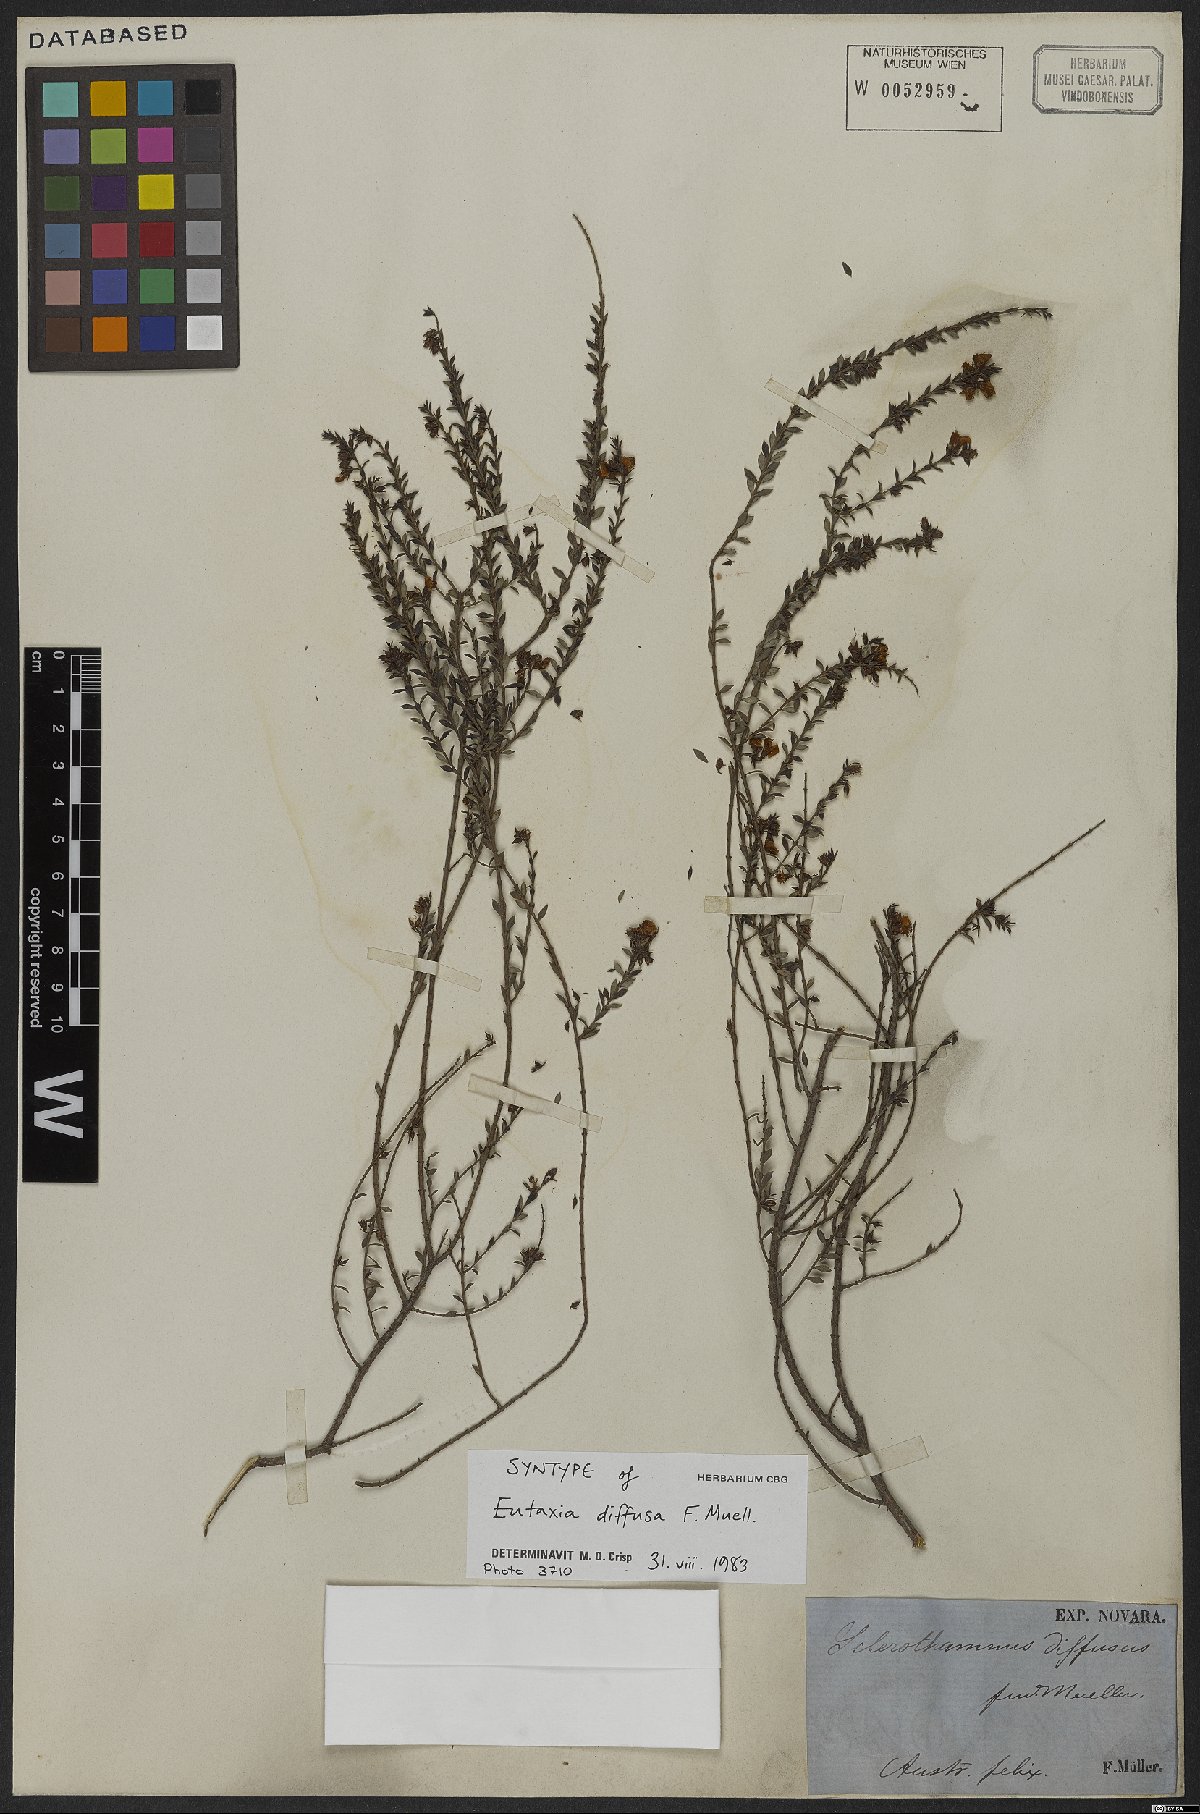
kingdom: Plantae
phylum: Tracheophyta
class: Magnoliopsida
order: Fabales
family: Fabaceae
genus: Eutaxia
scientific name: Eutaxia diffusa
